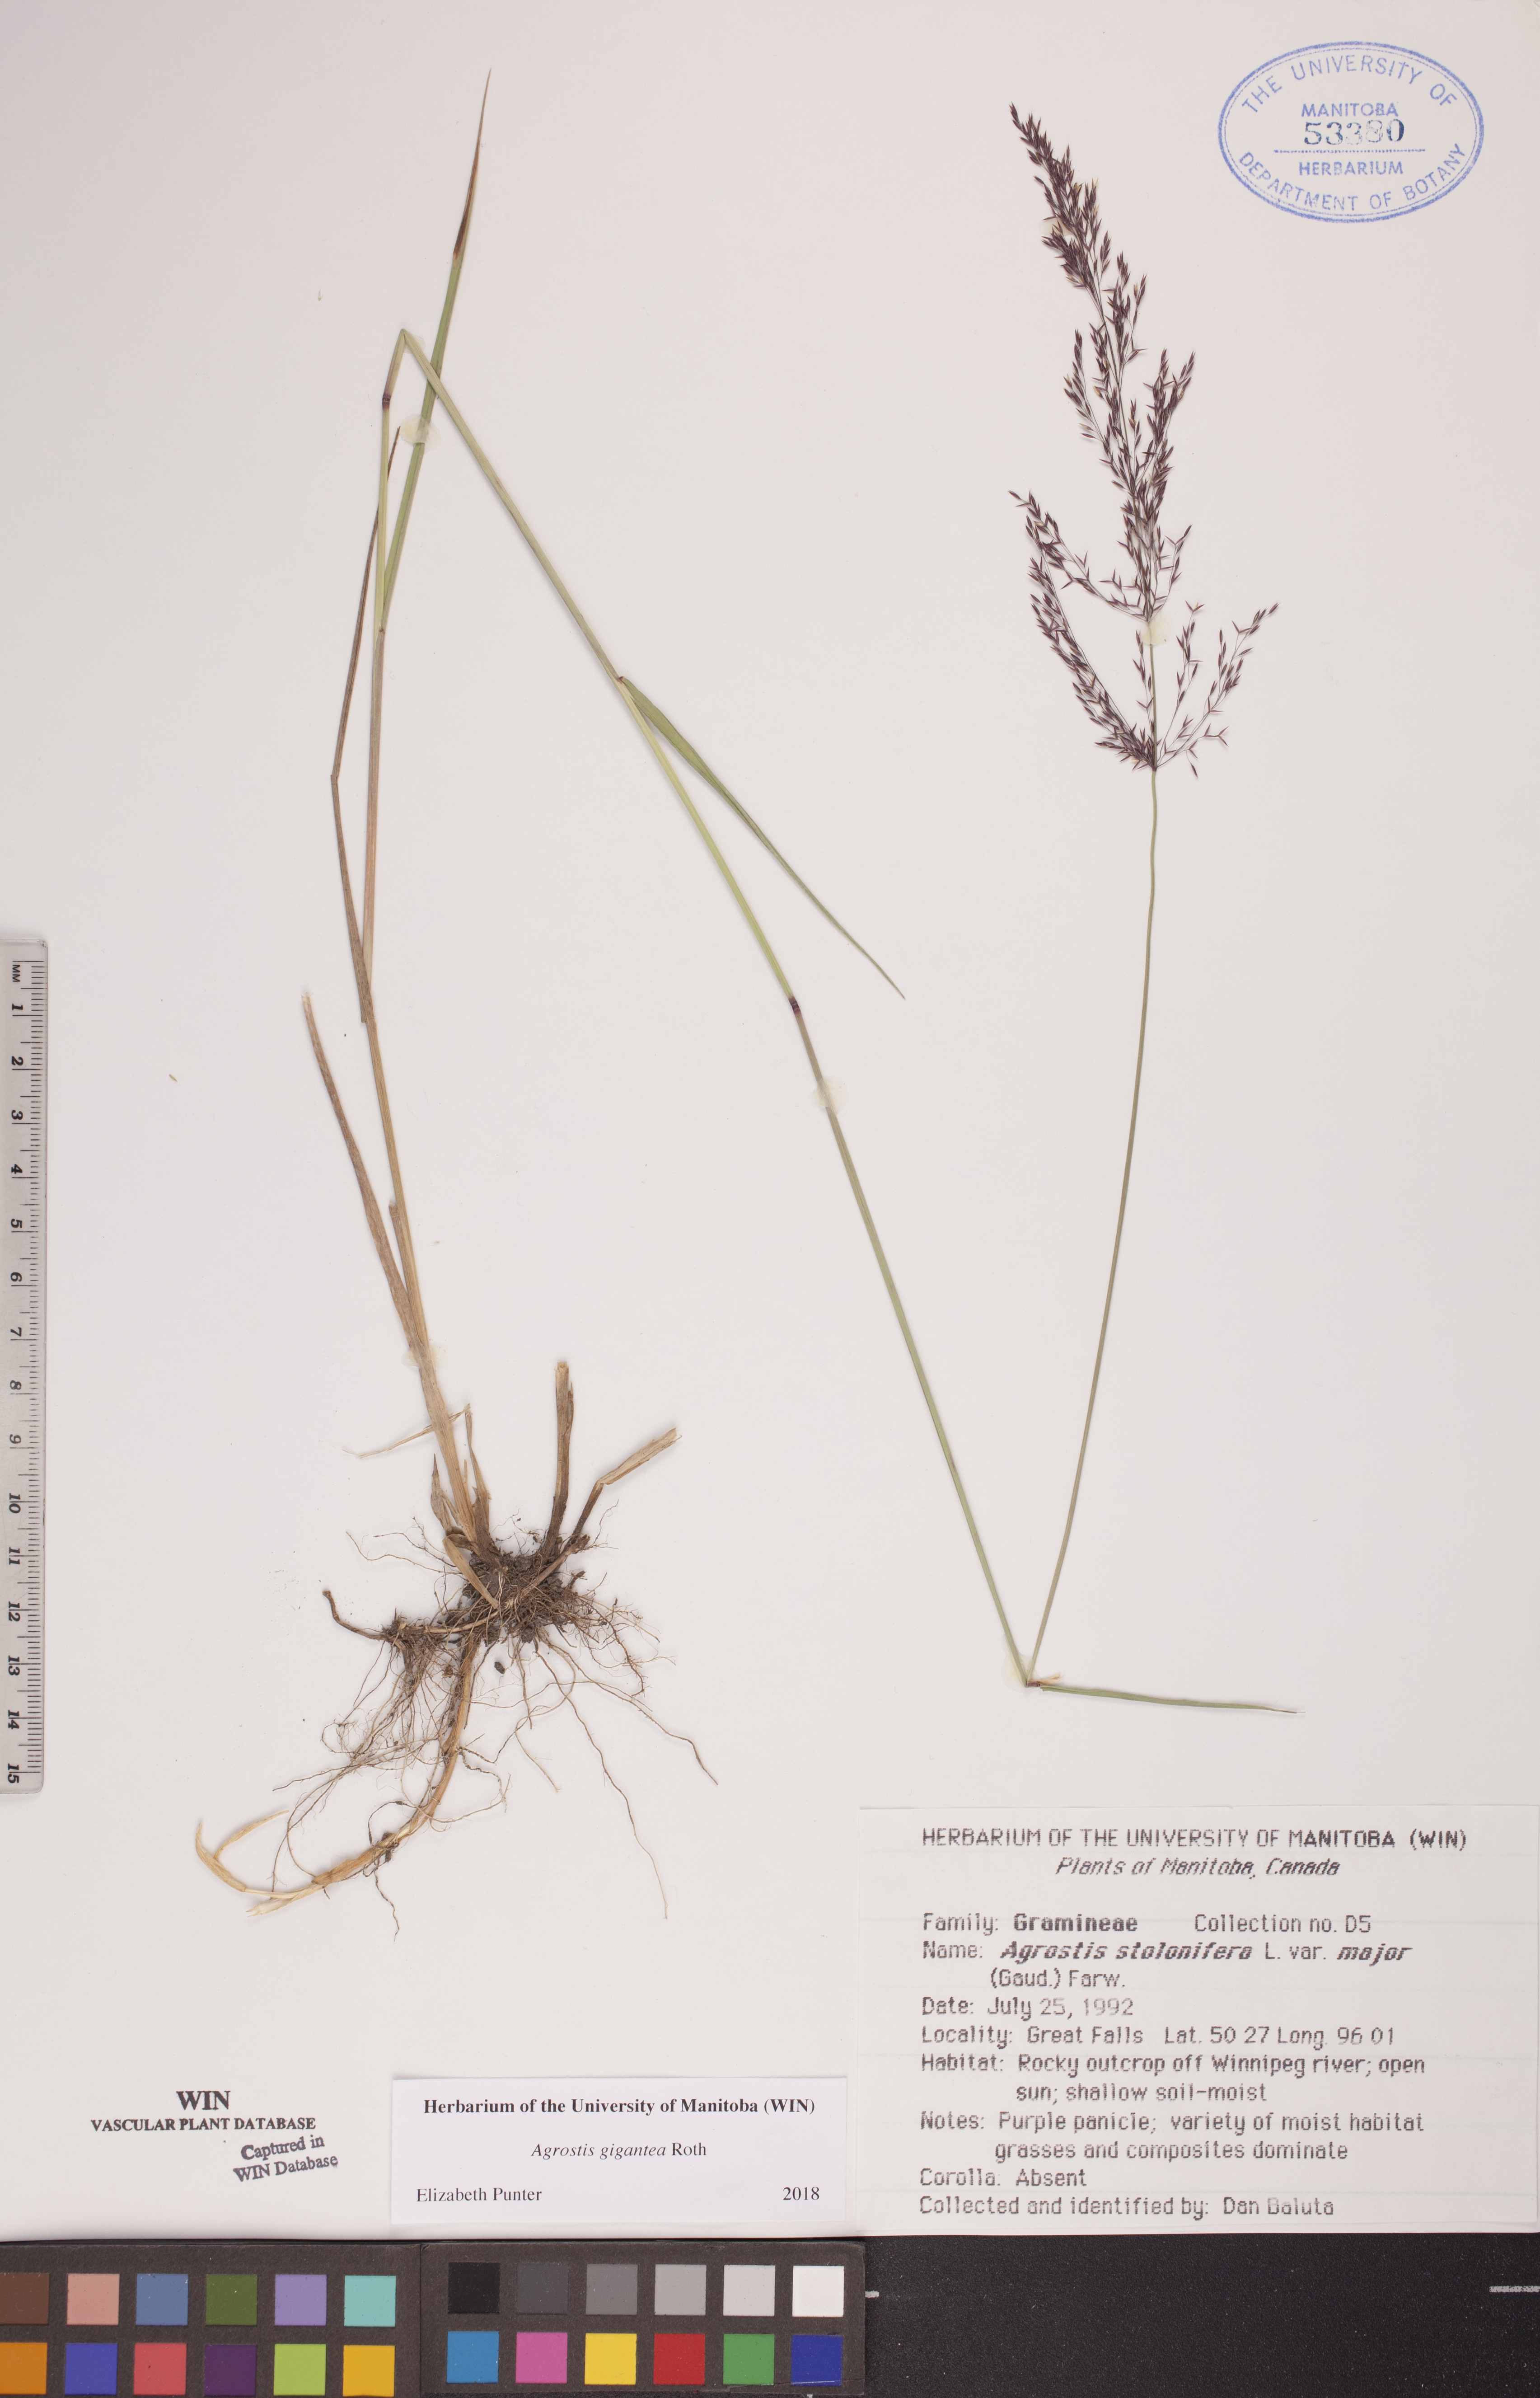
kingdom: Plantae
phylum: Tracheophyta
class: Liliopsida
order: Poales
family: Poaceae
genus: Agrostis
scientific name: Agrostis gigantea
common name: Black bent
